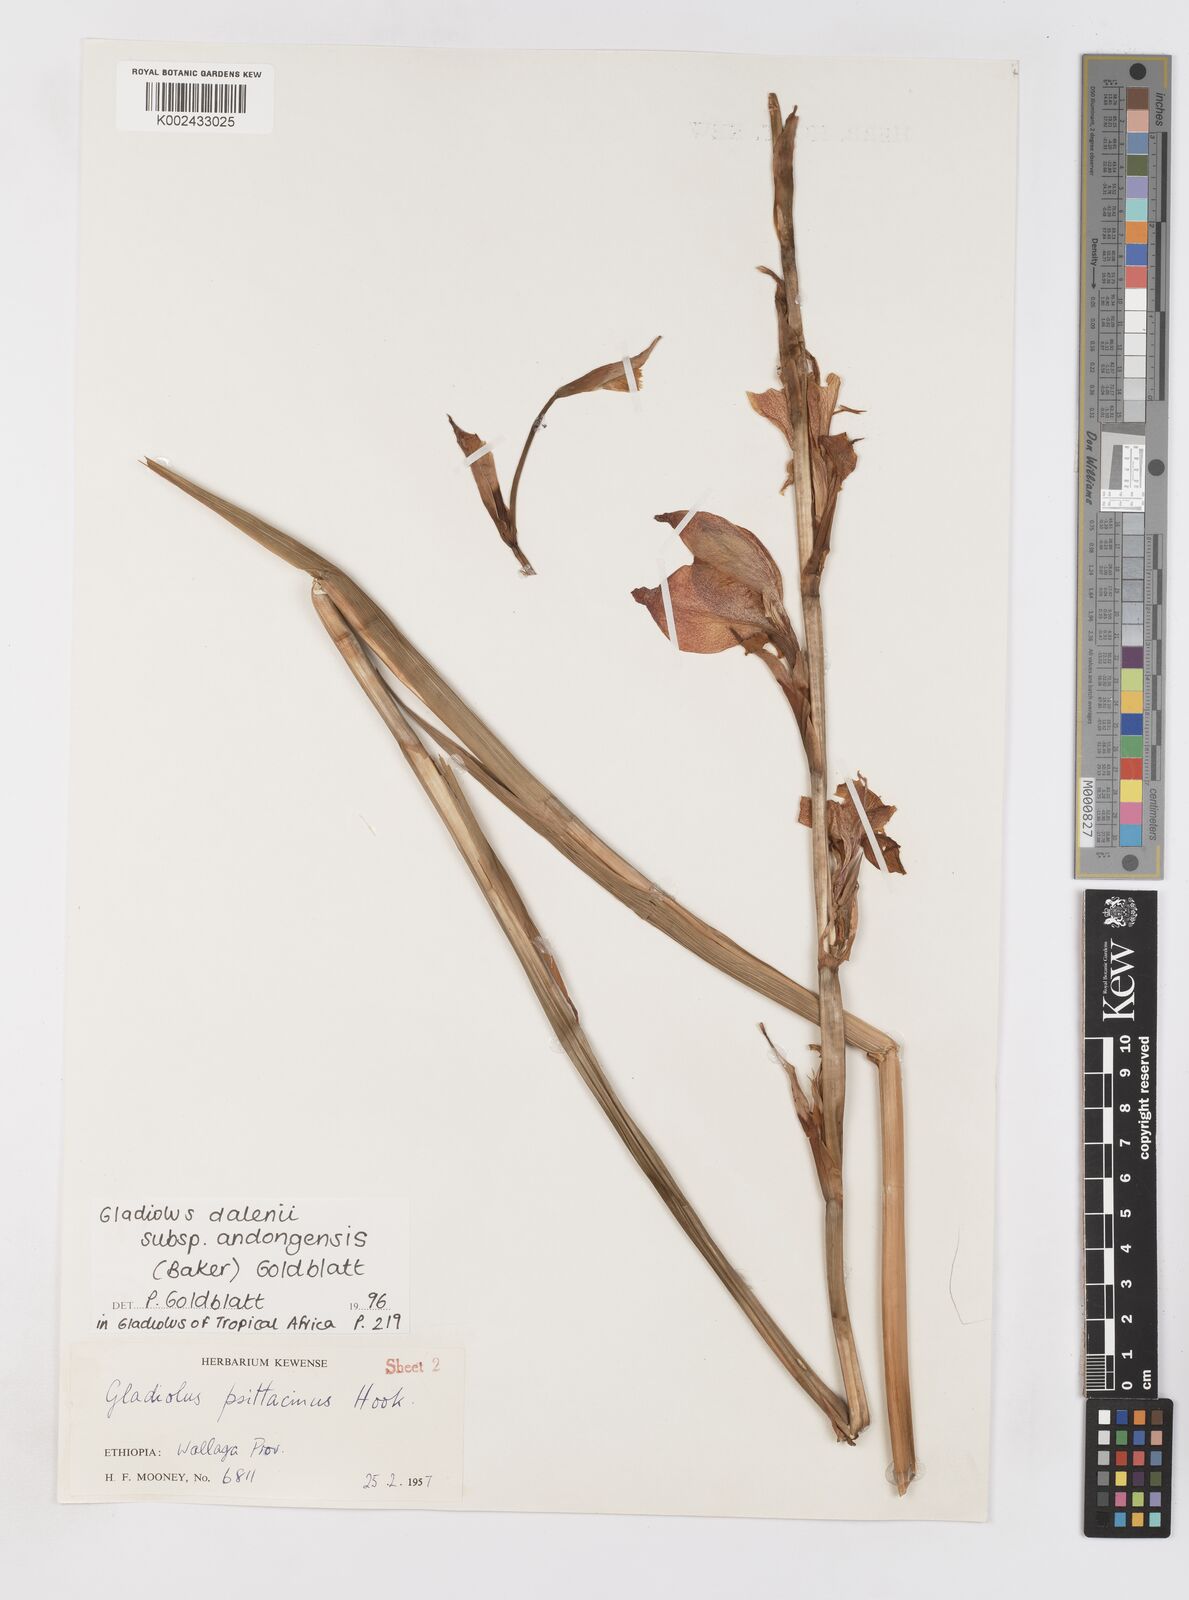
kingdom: Plantae
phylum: Tracheophyta
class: Liliopsida
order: Asparagales
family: Iridaceae
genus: Gladiolus
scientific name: Gladiolus dalenii
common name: Cornflag
